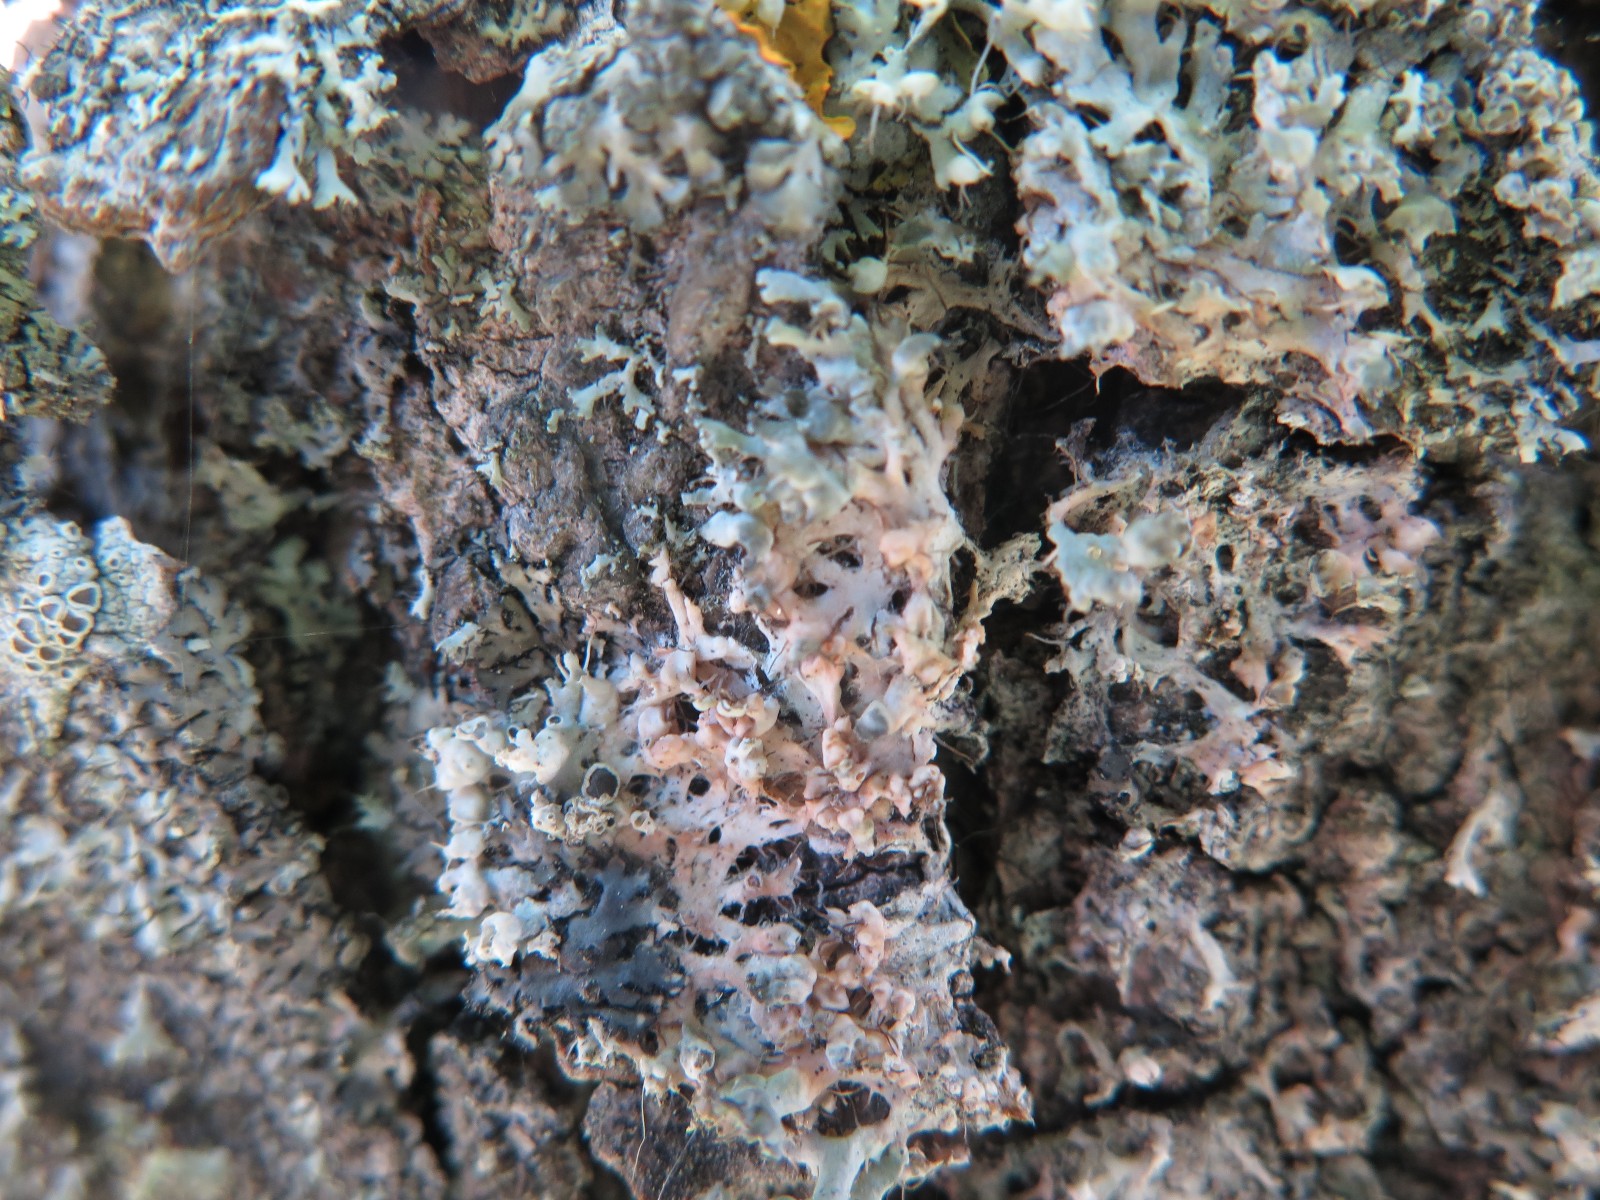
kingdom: Fungi
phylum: Basidiomycota
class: Agaricomycetes
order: Corticiales
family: Corticiaceae
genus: Erythricium
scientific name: Erythricium aurantiacum
